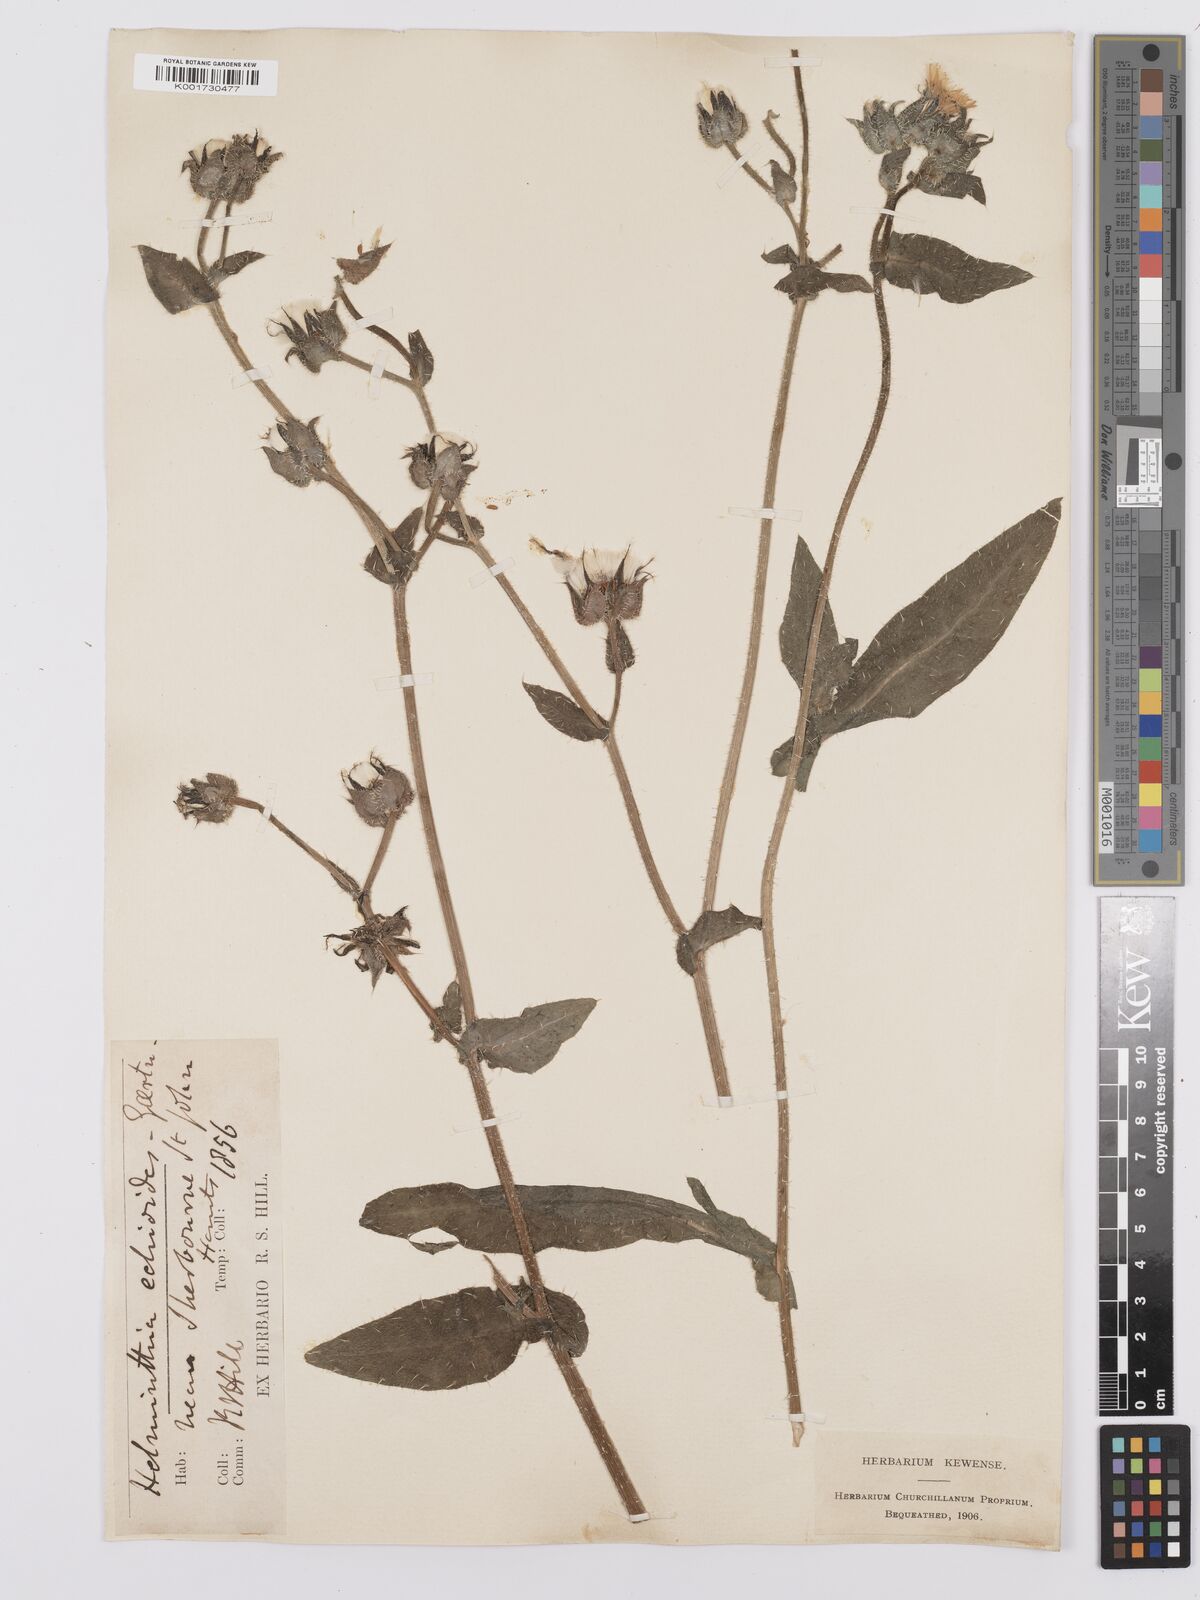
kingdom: Plantae
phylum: Tracheophyta
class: Magnoliopsida
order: Asterales
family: Asteraceae
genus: Helminthotheca
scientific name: Helminthotheca echioides
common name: Ox-tongue
